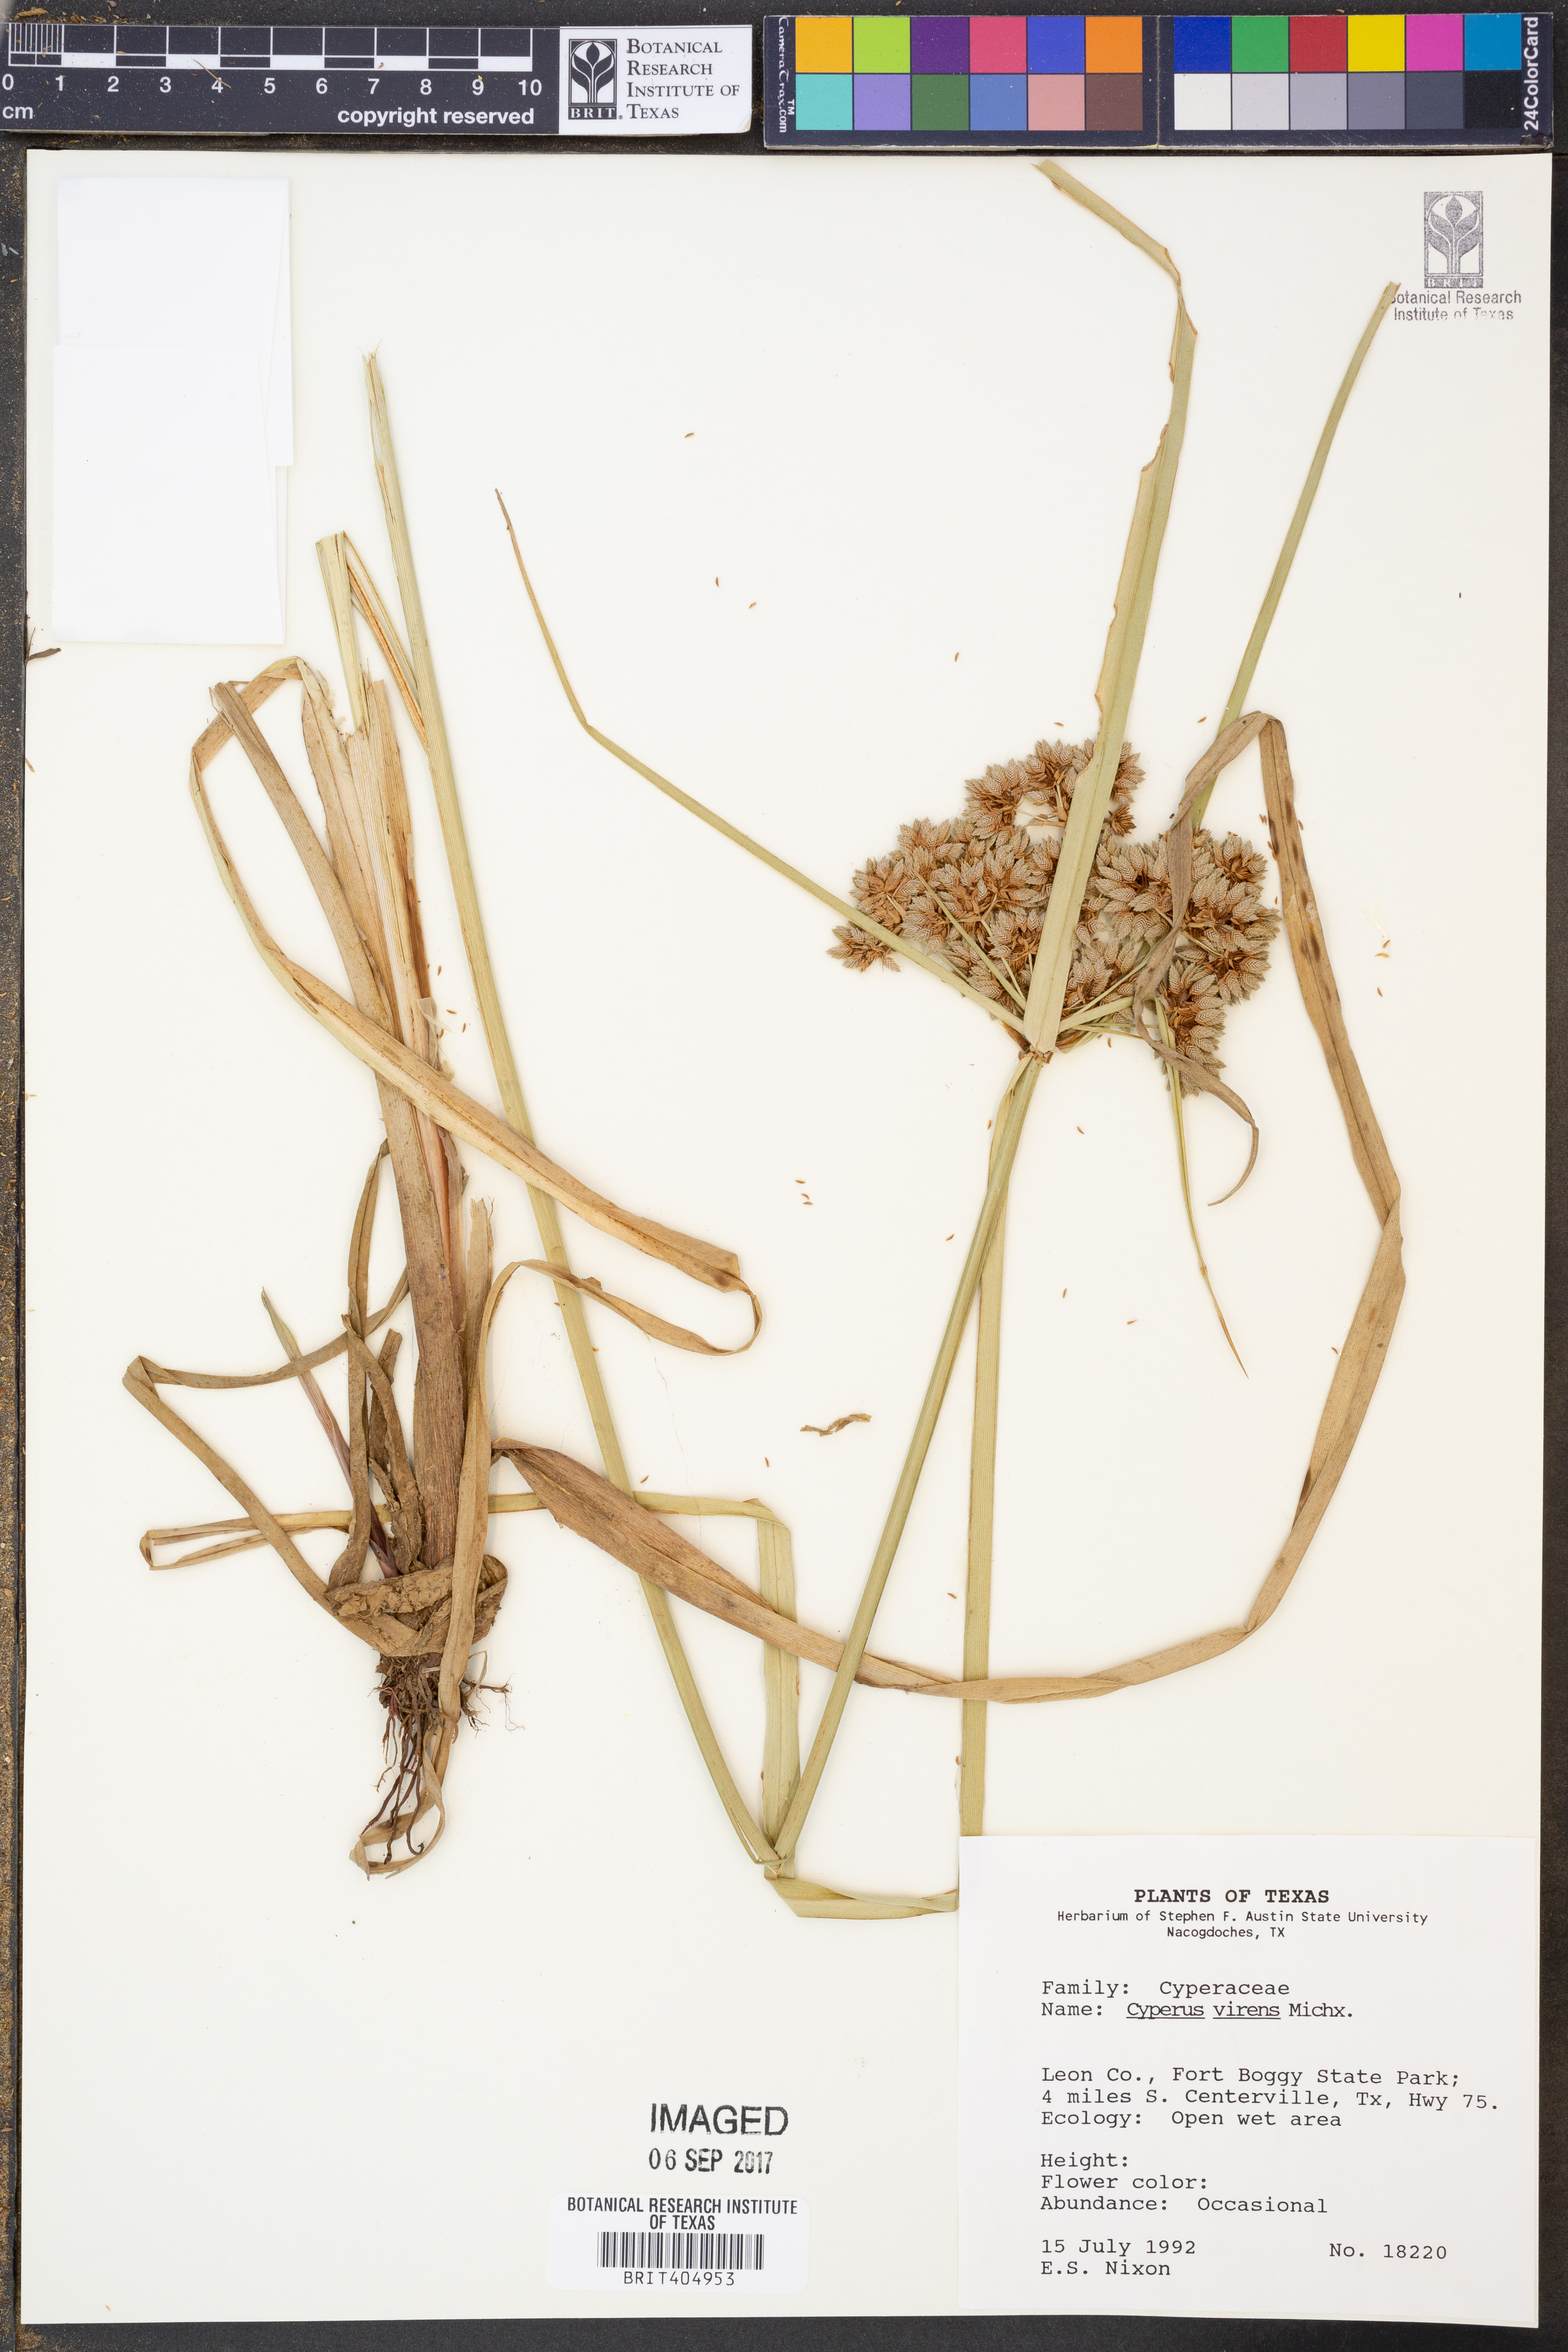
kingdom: Plantae
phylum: Tracheophyta
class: Liliopsida
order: Poales
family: Cyperaceae
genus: Cyperus
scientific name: Cyperus virens
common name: Green flatsedge
